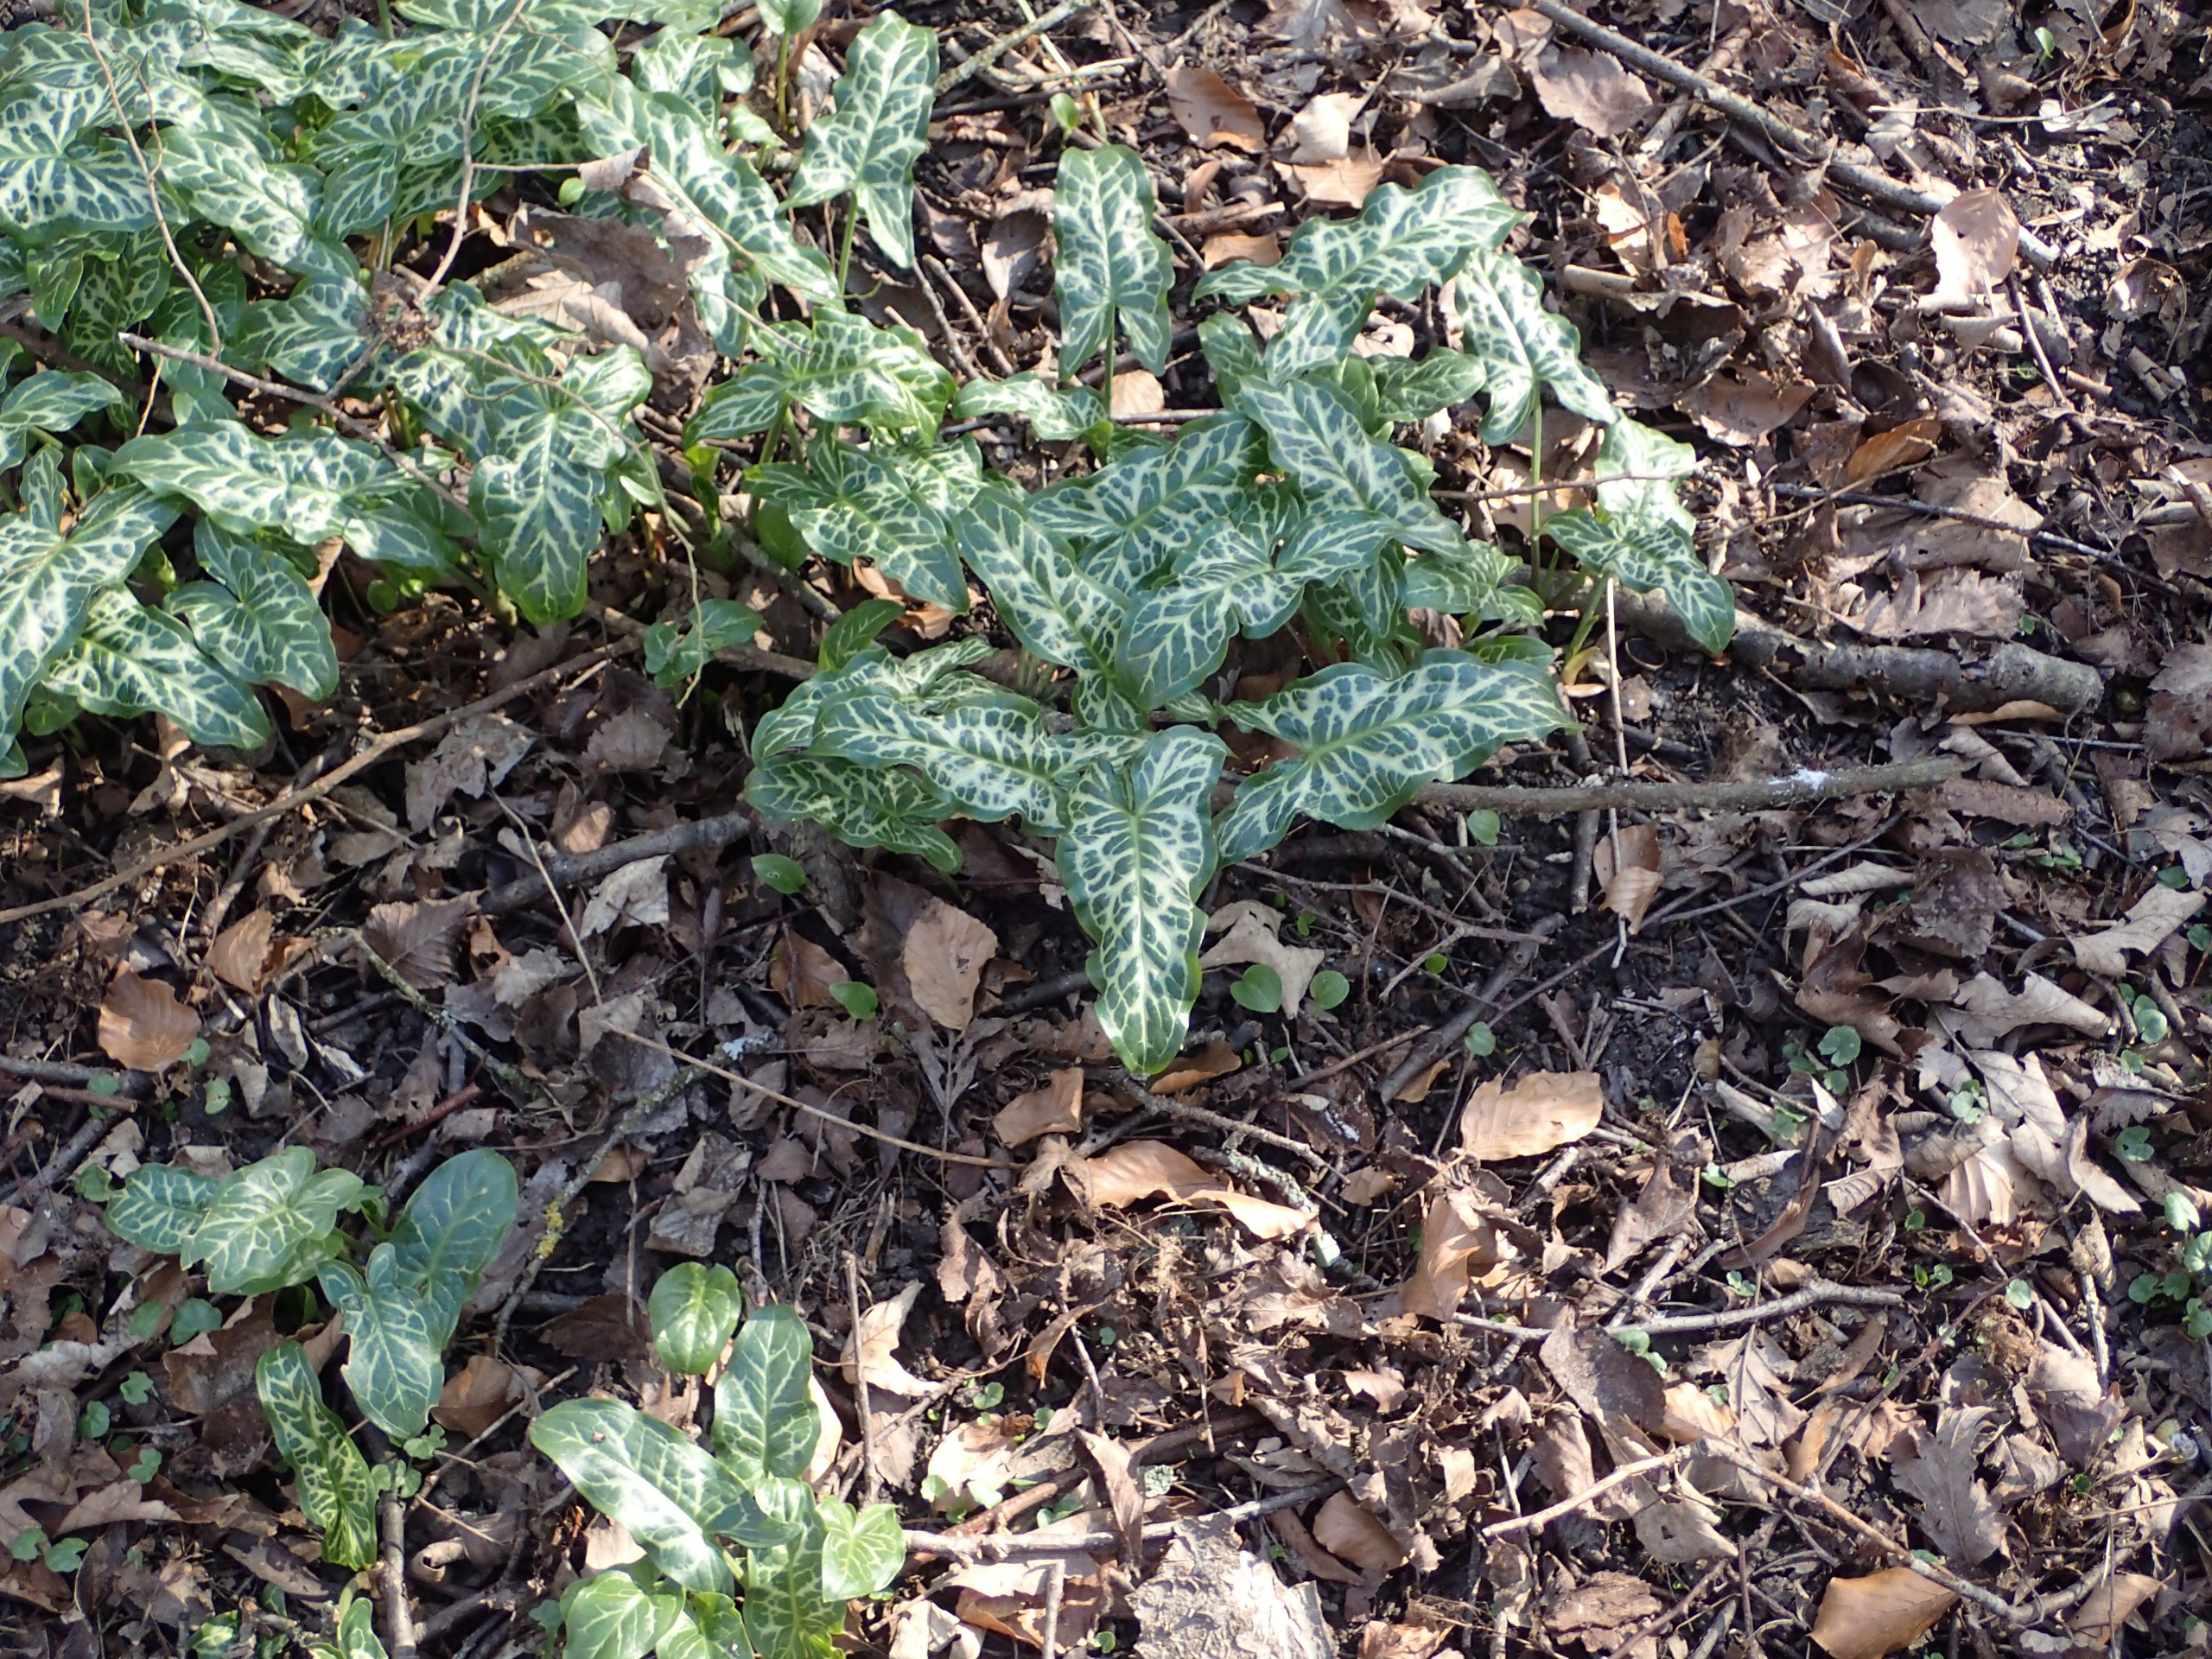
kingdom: Plantae
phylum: Tracheophyta
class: Liliopsida
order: Alismatales
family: Araceae
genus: Arum
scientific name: Arum italicum
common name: Italiensk arum
